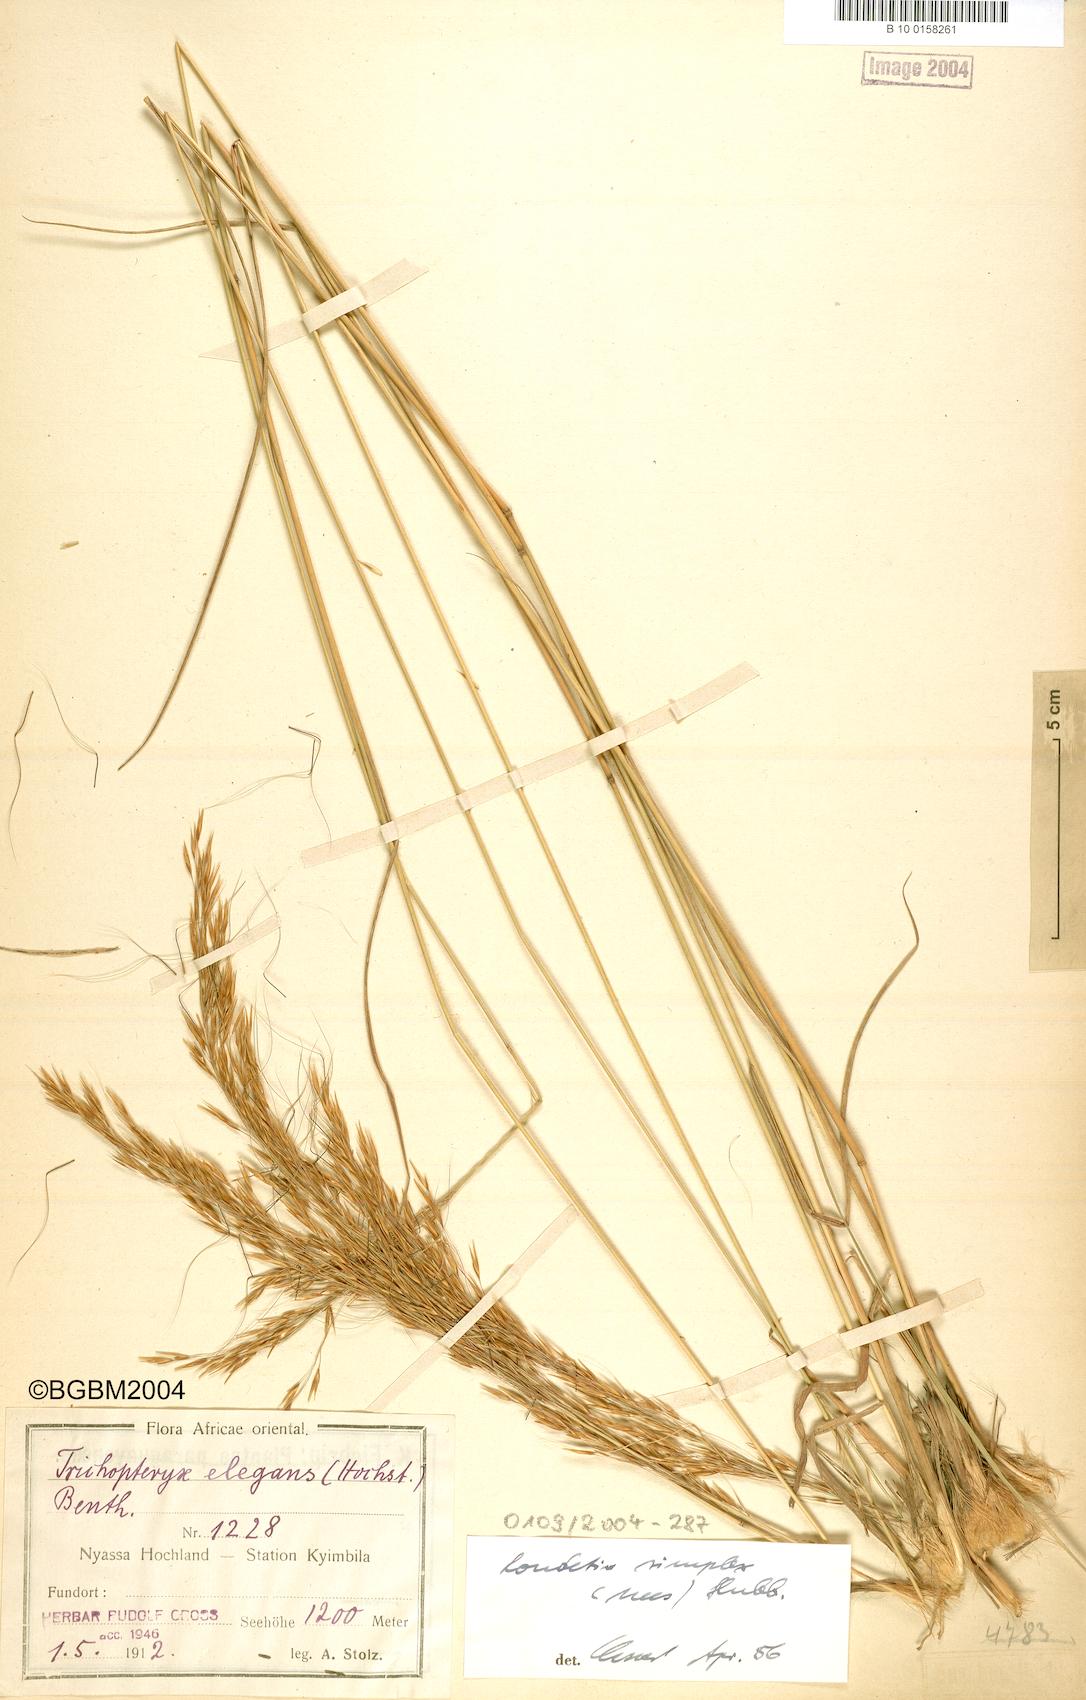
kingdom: Plantae
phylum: Tracheophyta
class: Liliopsida
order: Poales
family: Poaceae
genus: Loudetia
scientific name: Loudetia simplex
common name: Common russet grass
